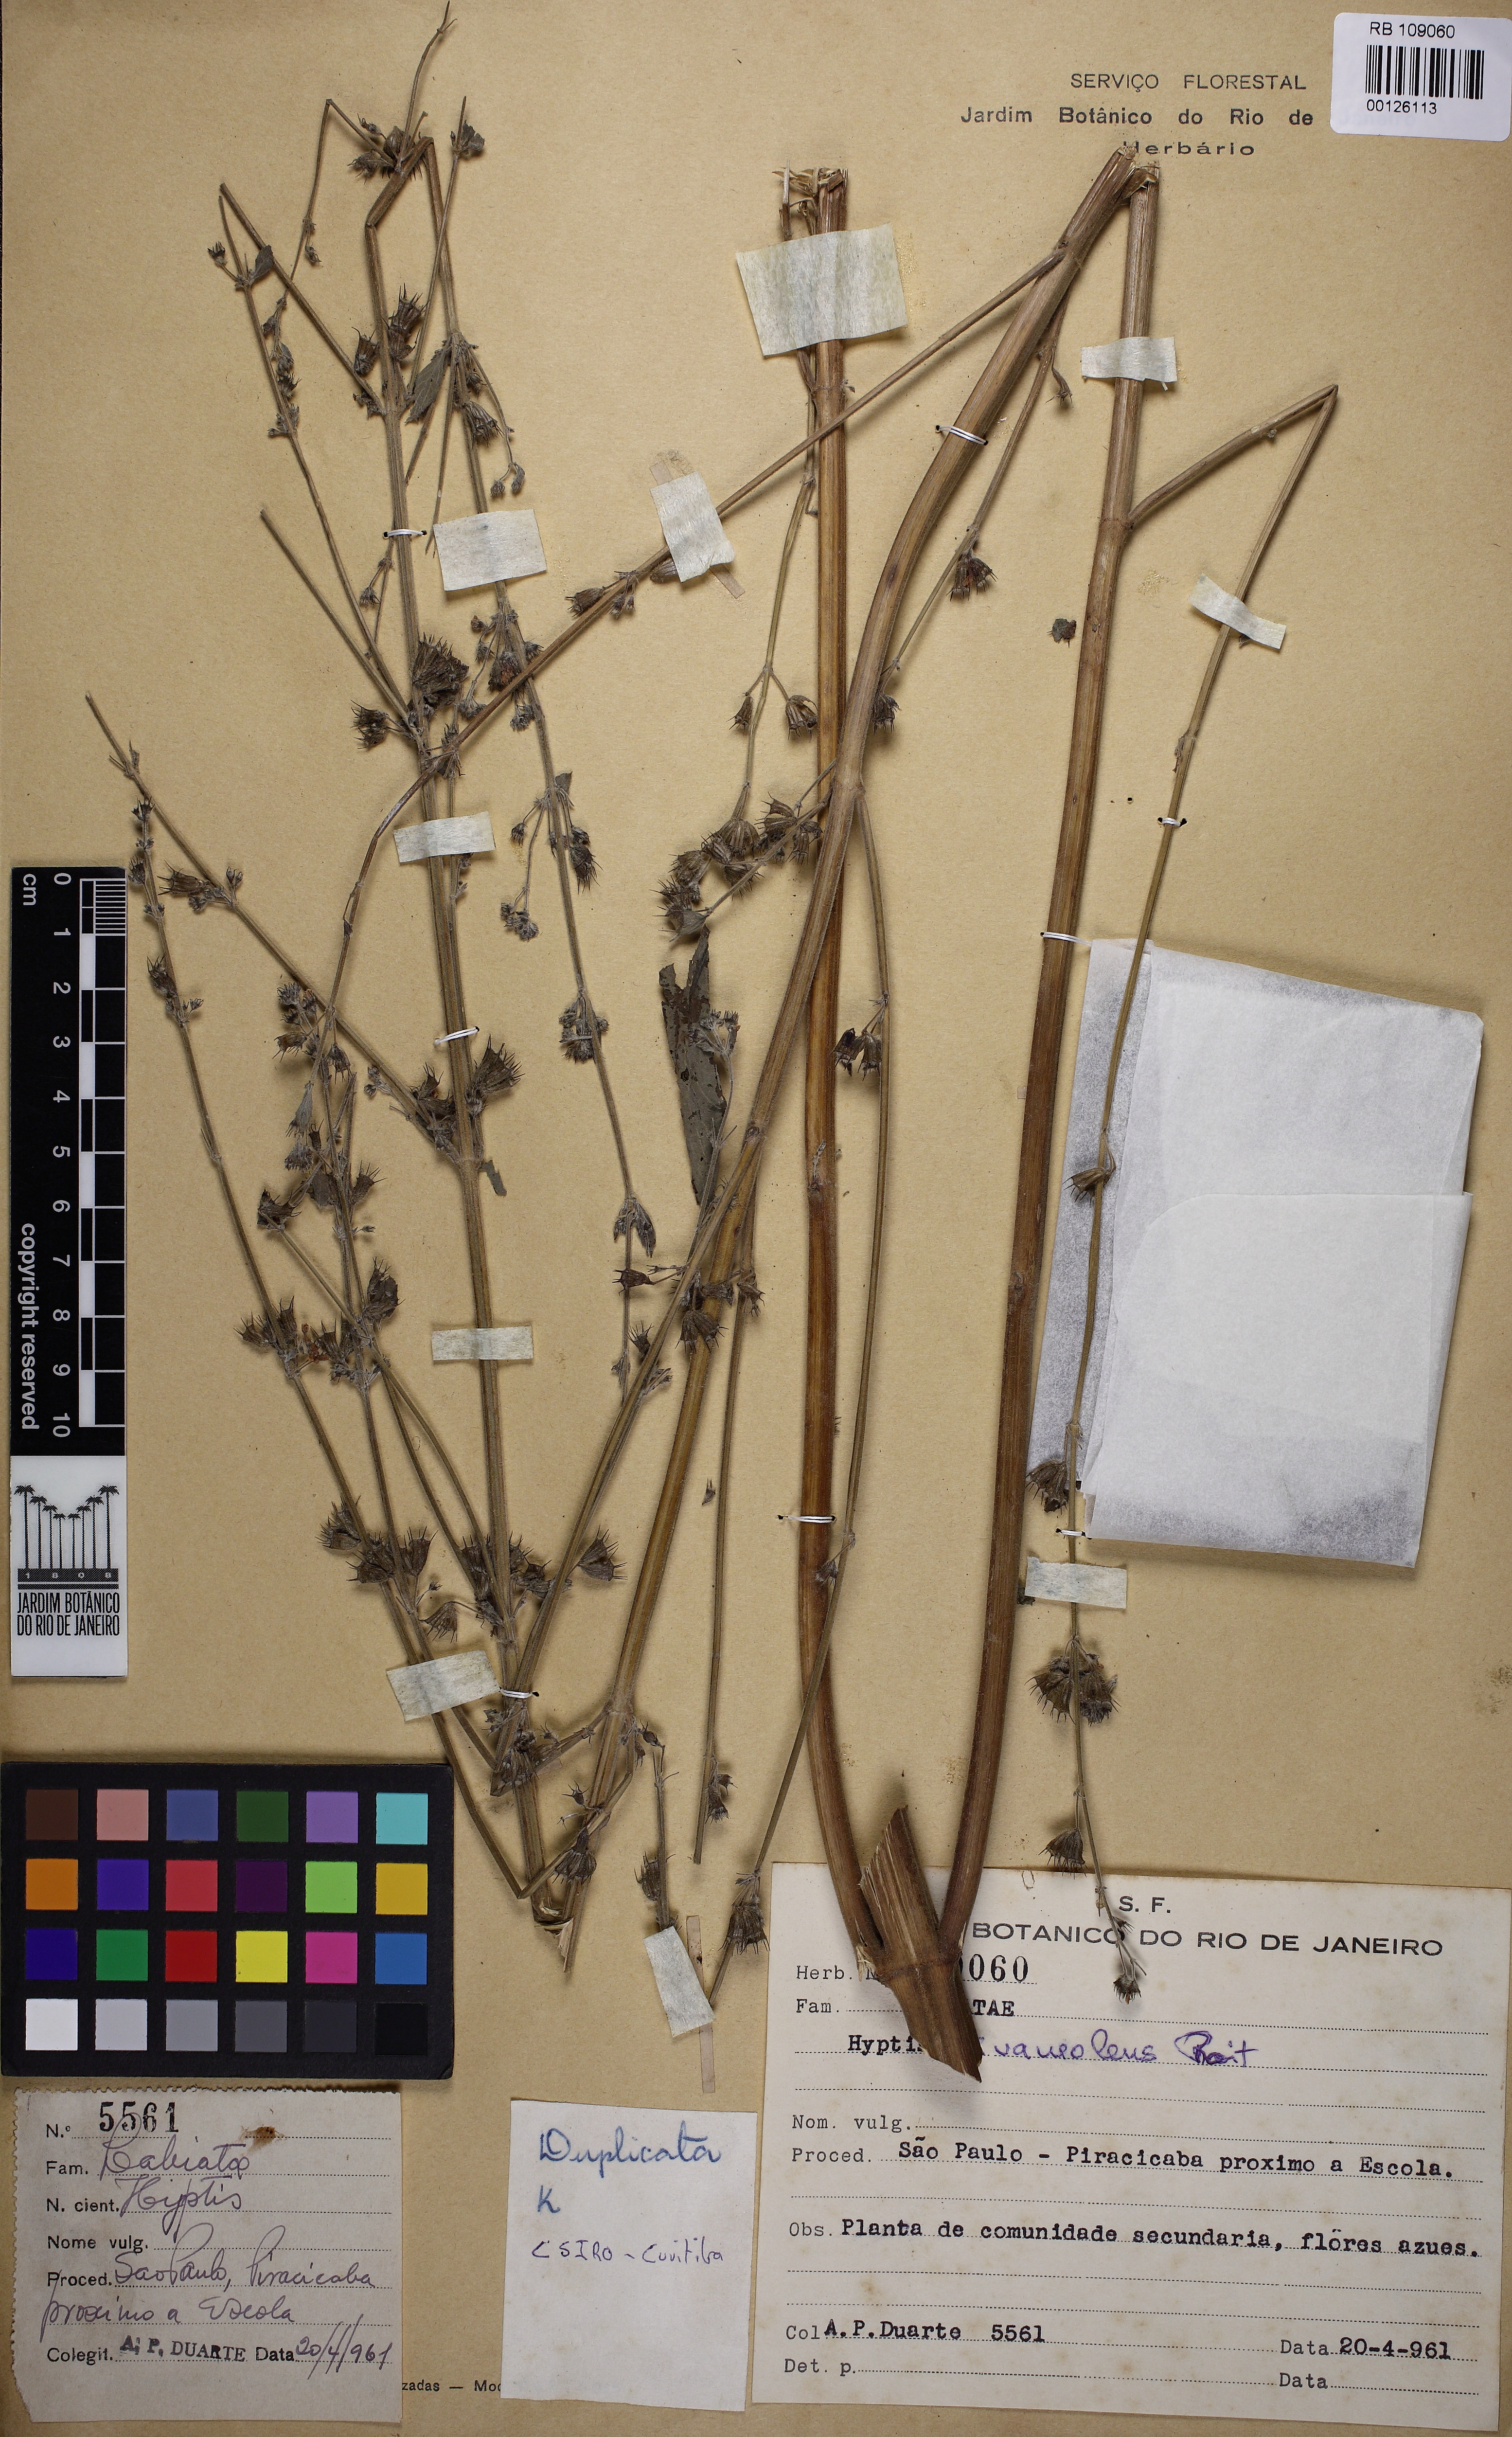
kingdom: Plantae
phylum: Tracheophyta
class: Magnoliopsida
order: Lamiales
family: Lamiaceae
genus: Mesosphaerum
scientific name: Mesosphaerum suaveolens
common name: Pignut
